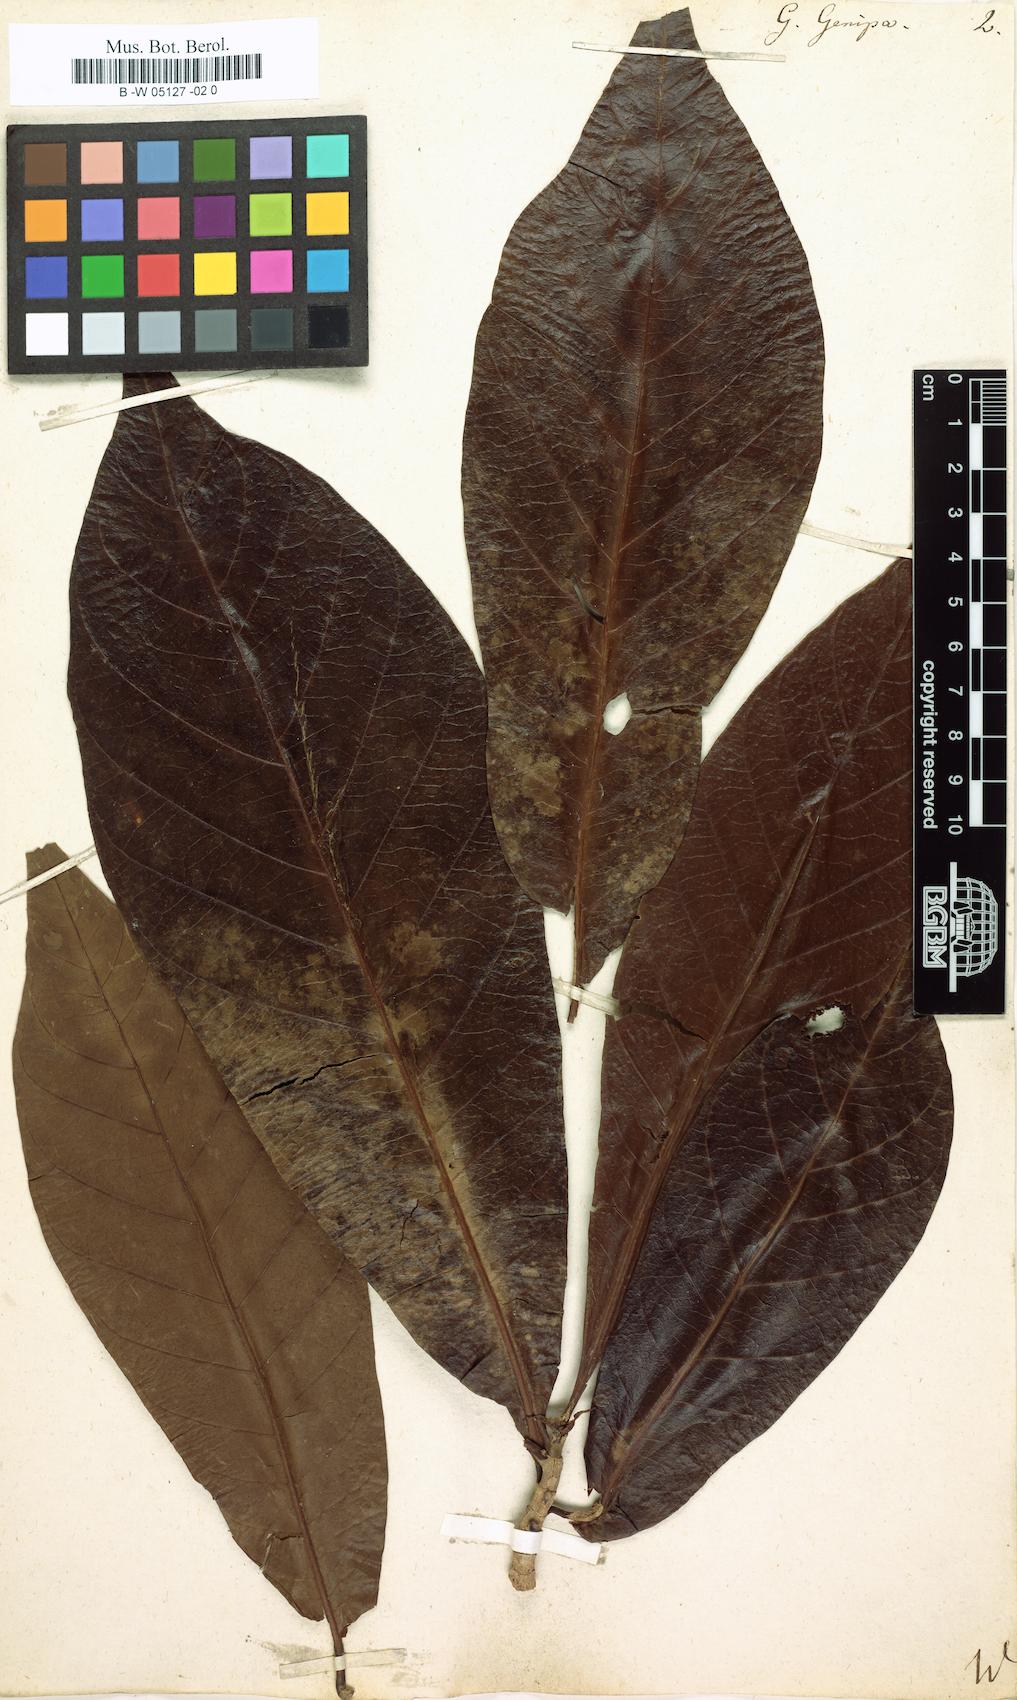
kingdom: Plantae
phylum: Tracheophyta
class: Magnoliopsida
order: Gentianales
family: Rubiaceae
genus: Genipa
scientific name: Genipa americana
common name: Genipap
